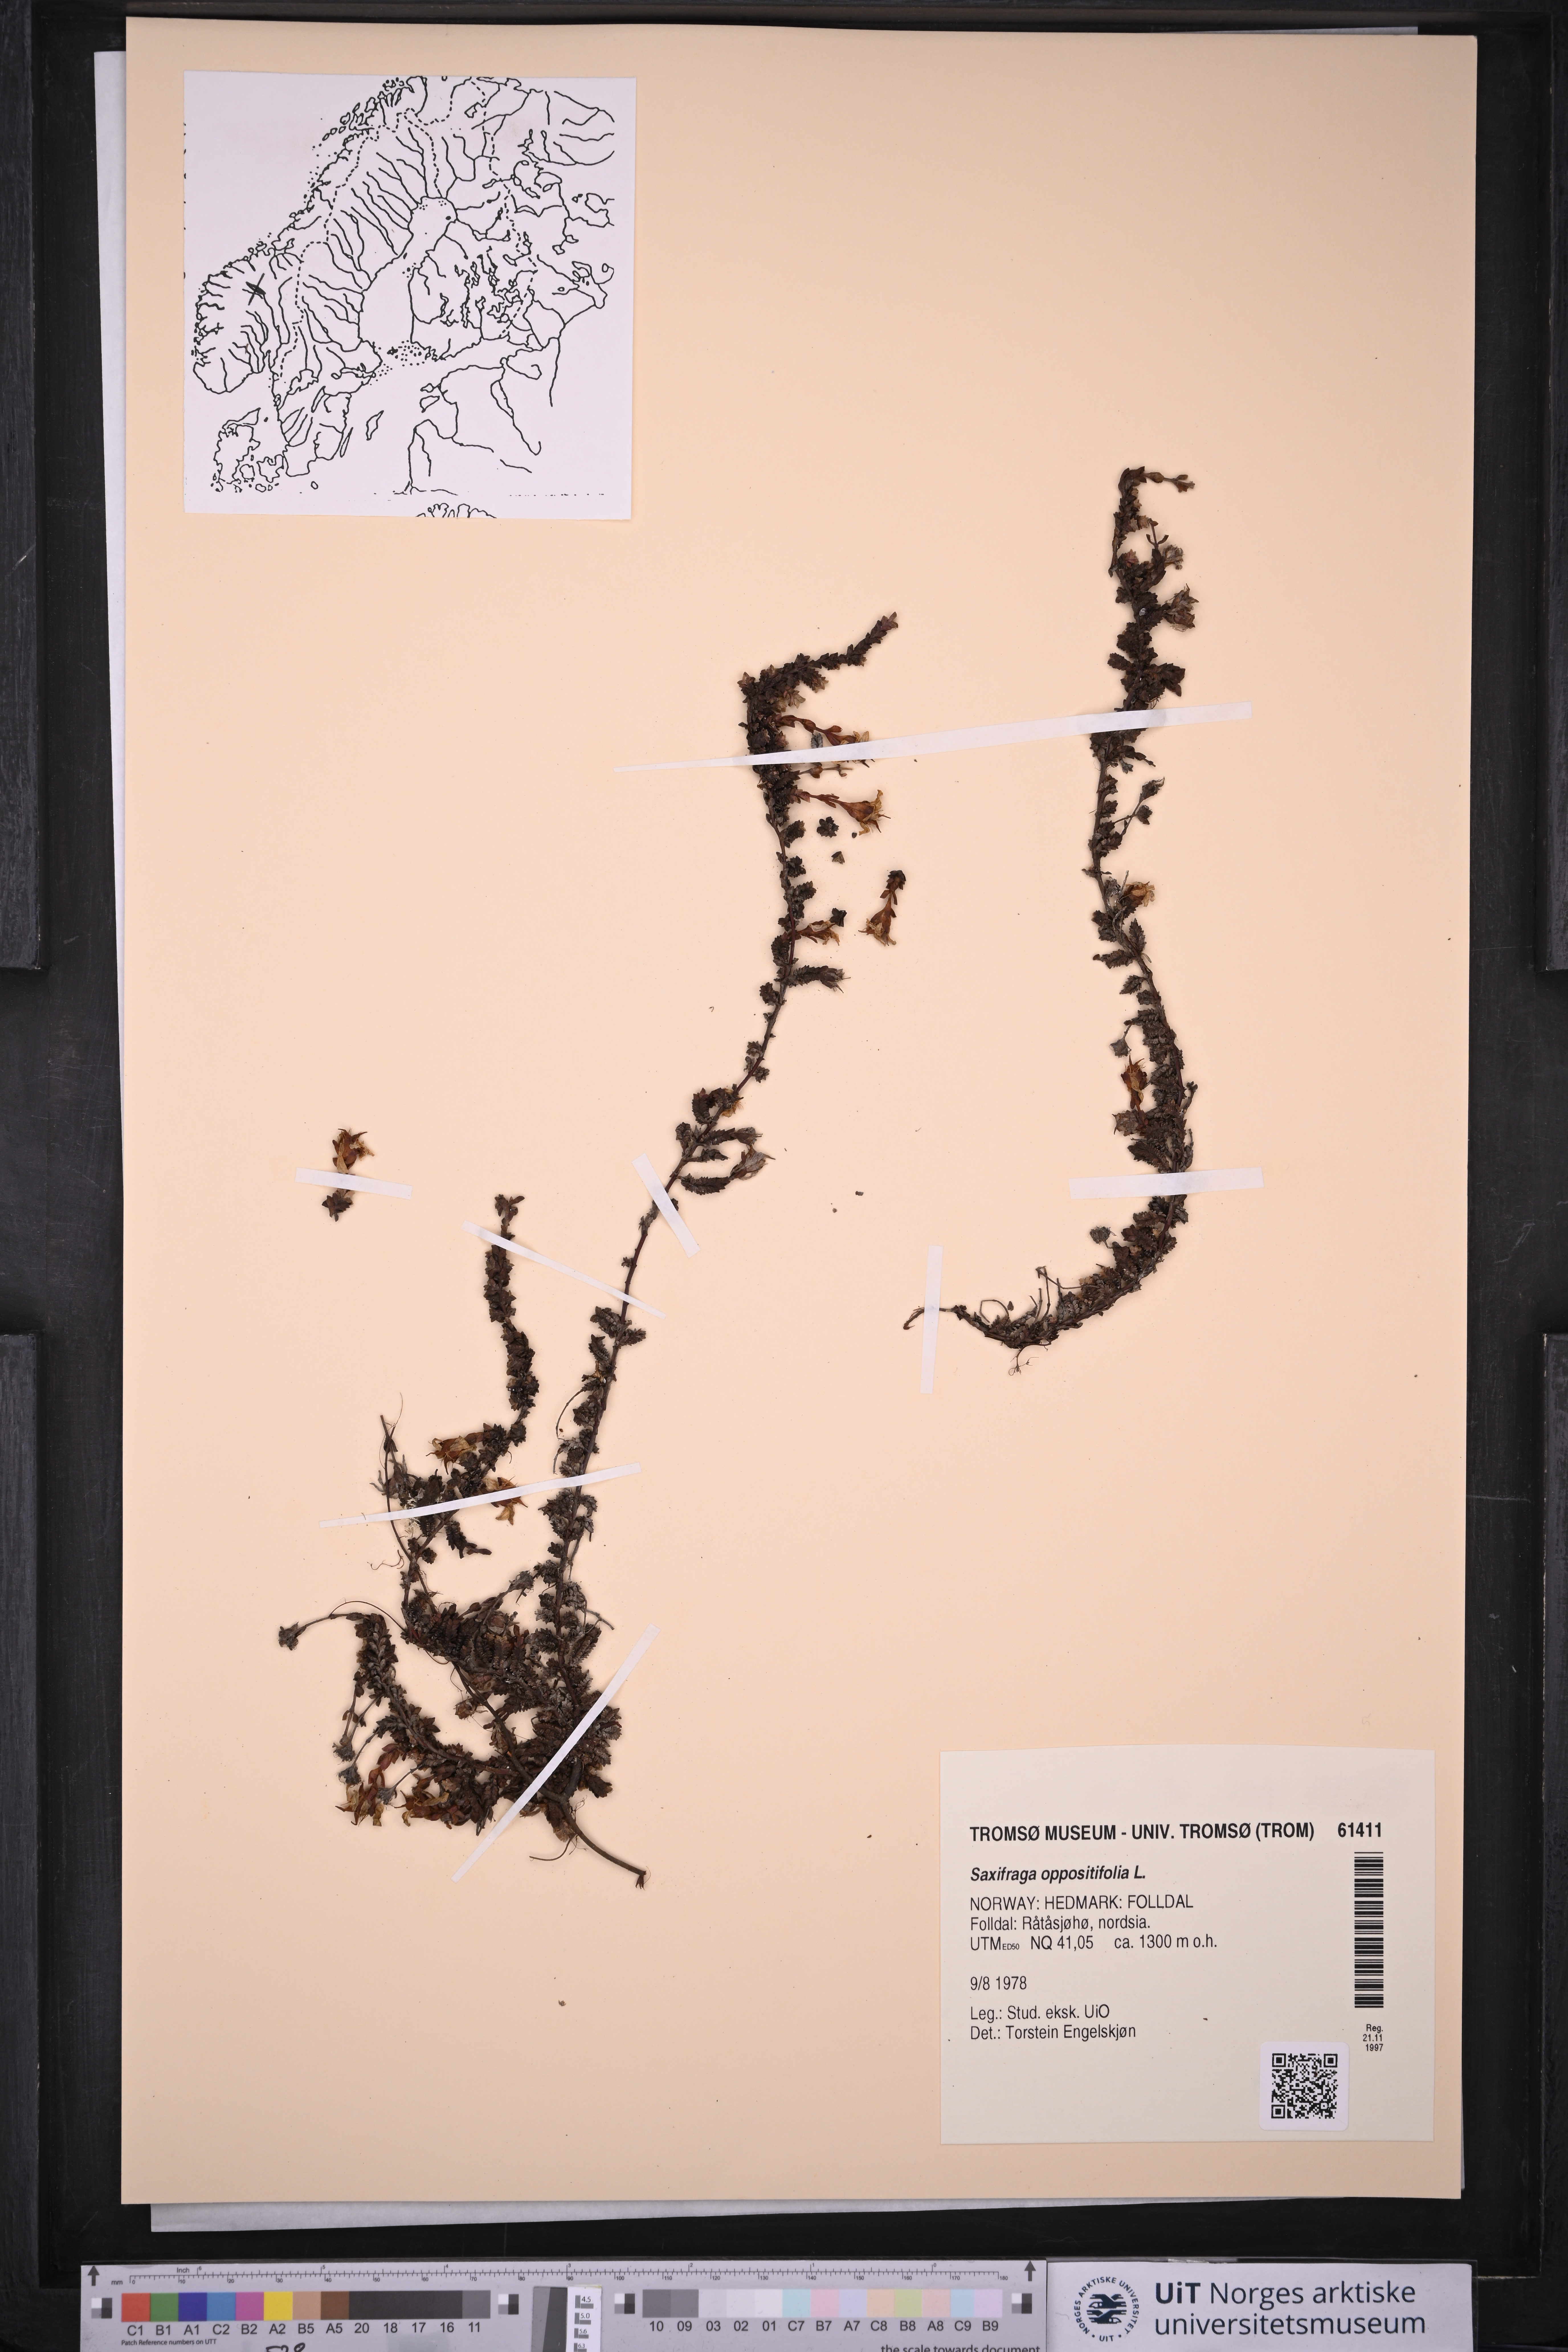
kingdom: Plantae
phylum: Tracheophyta
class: Magnoliopsida
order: Saxifragales
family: Saxifragaceae
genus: Saxifraga
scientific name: Saxifraga oppositifolia
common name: Purple saxifrage
